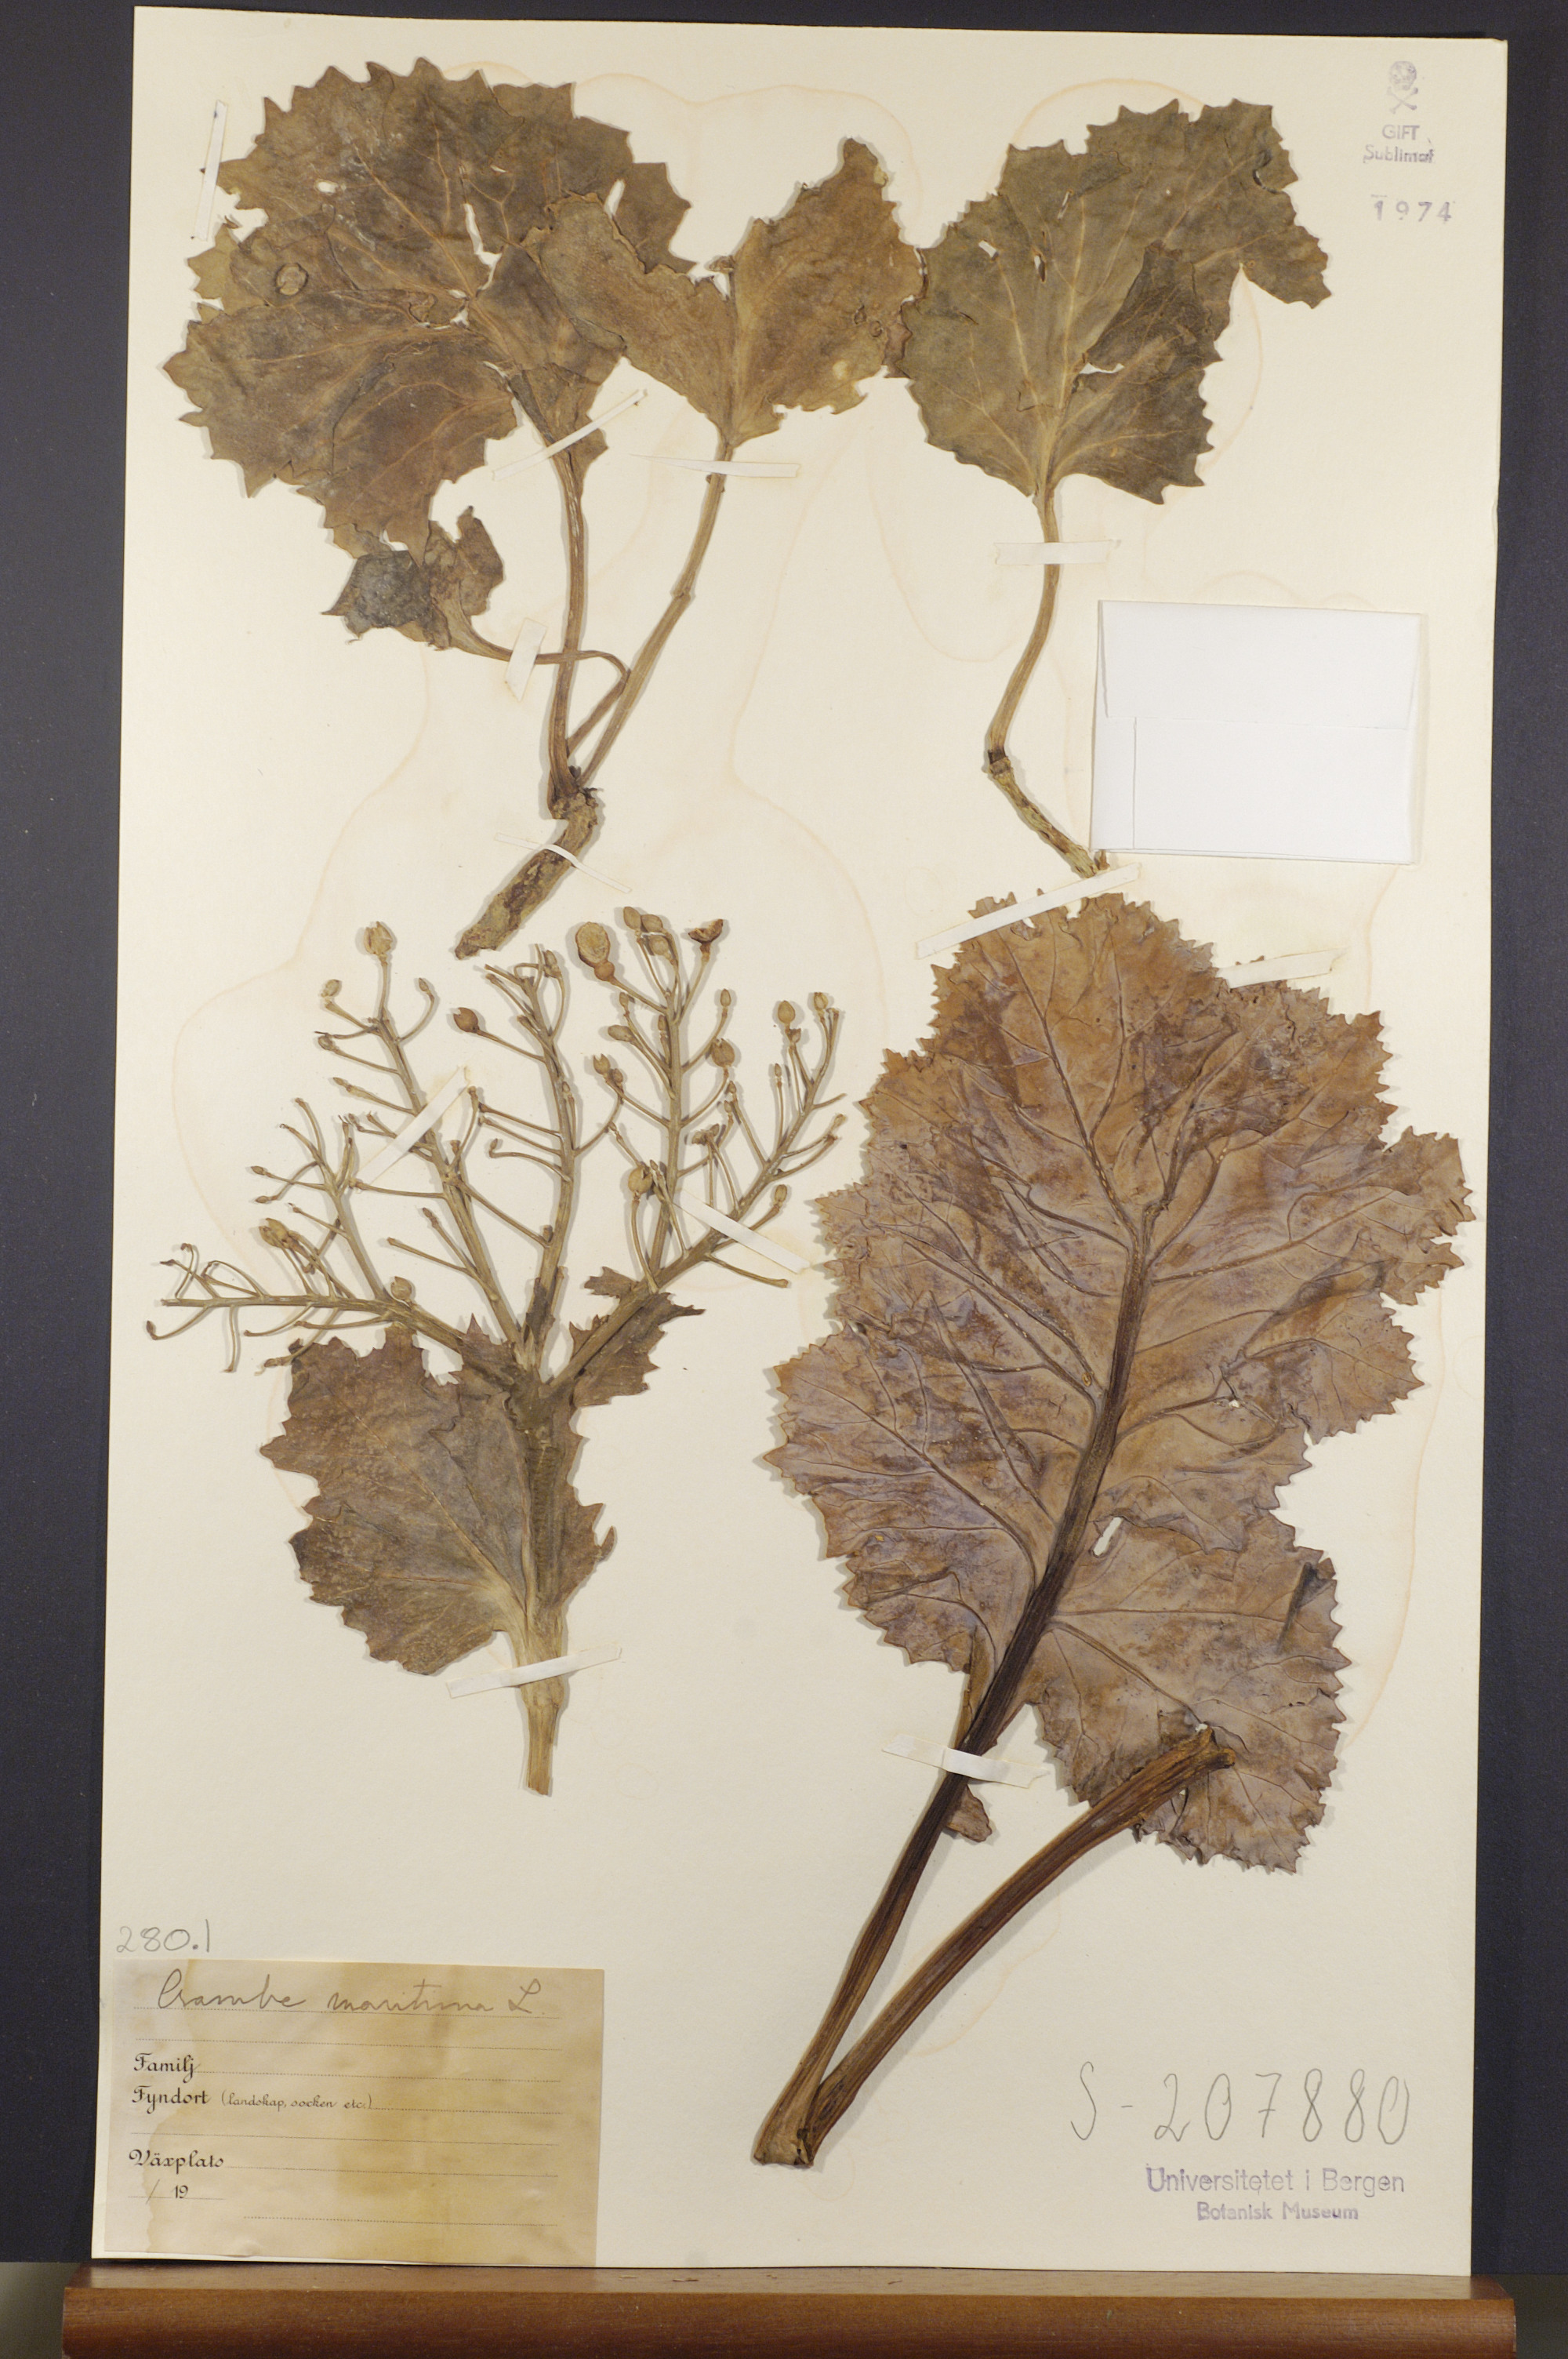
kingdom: Plantae
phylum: Tracheophyta
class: Magnoliopsida
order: Brassicales
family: Brassicaceae
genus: Crambe
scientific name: Crambe maritima
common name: Sea-kale
